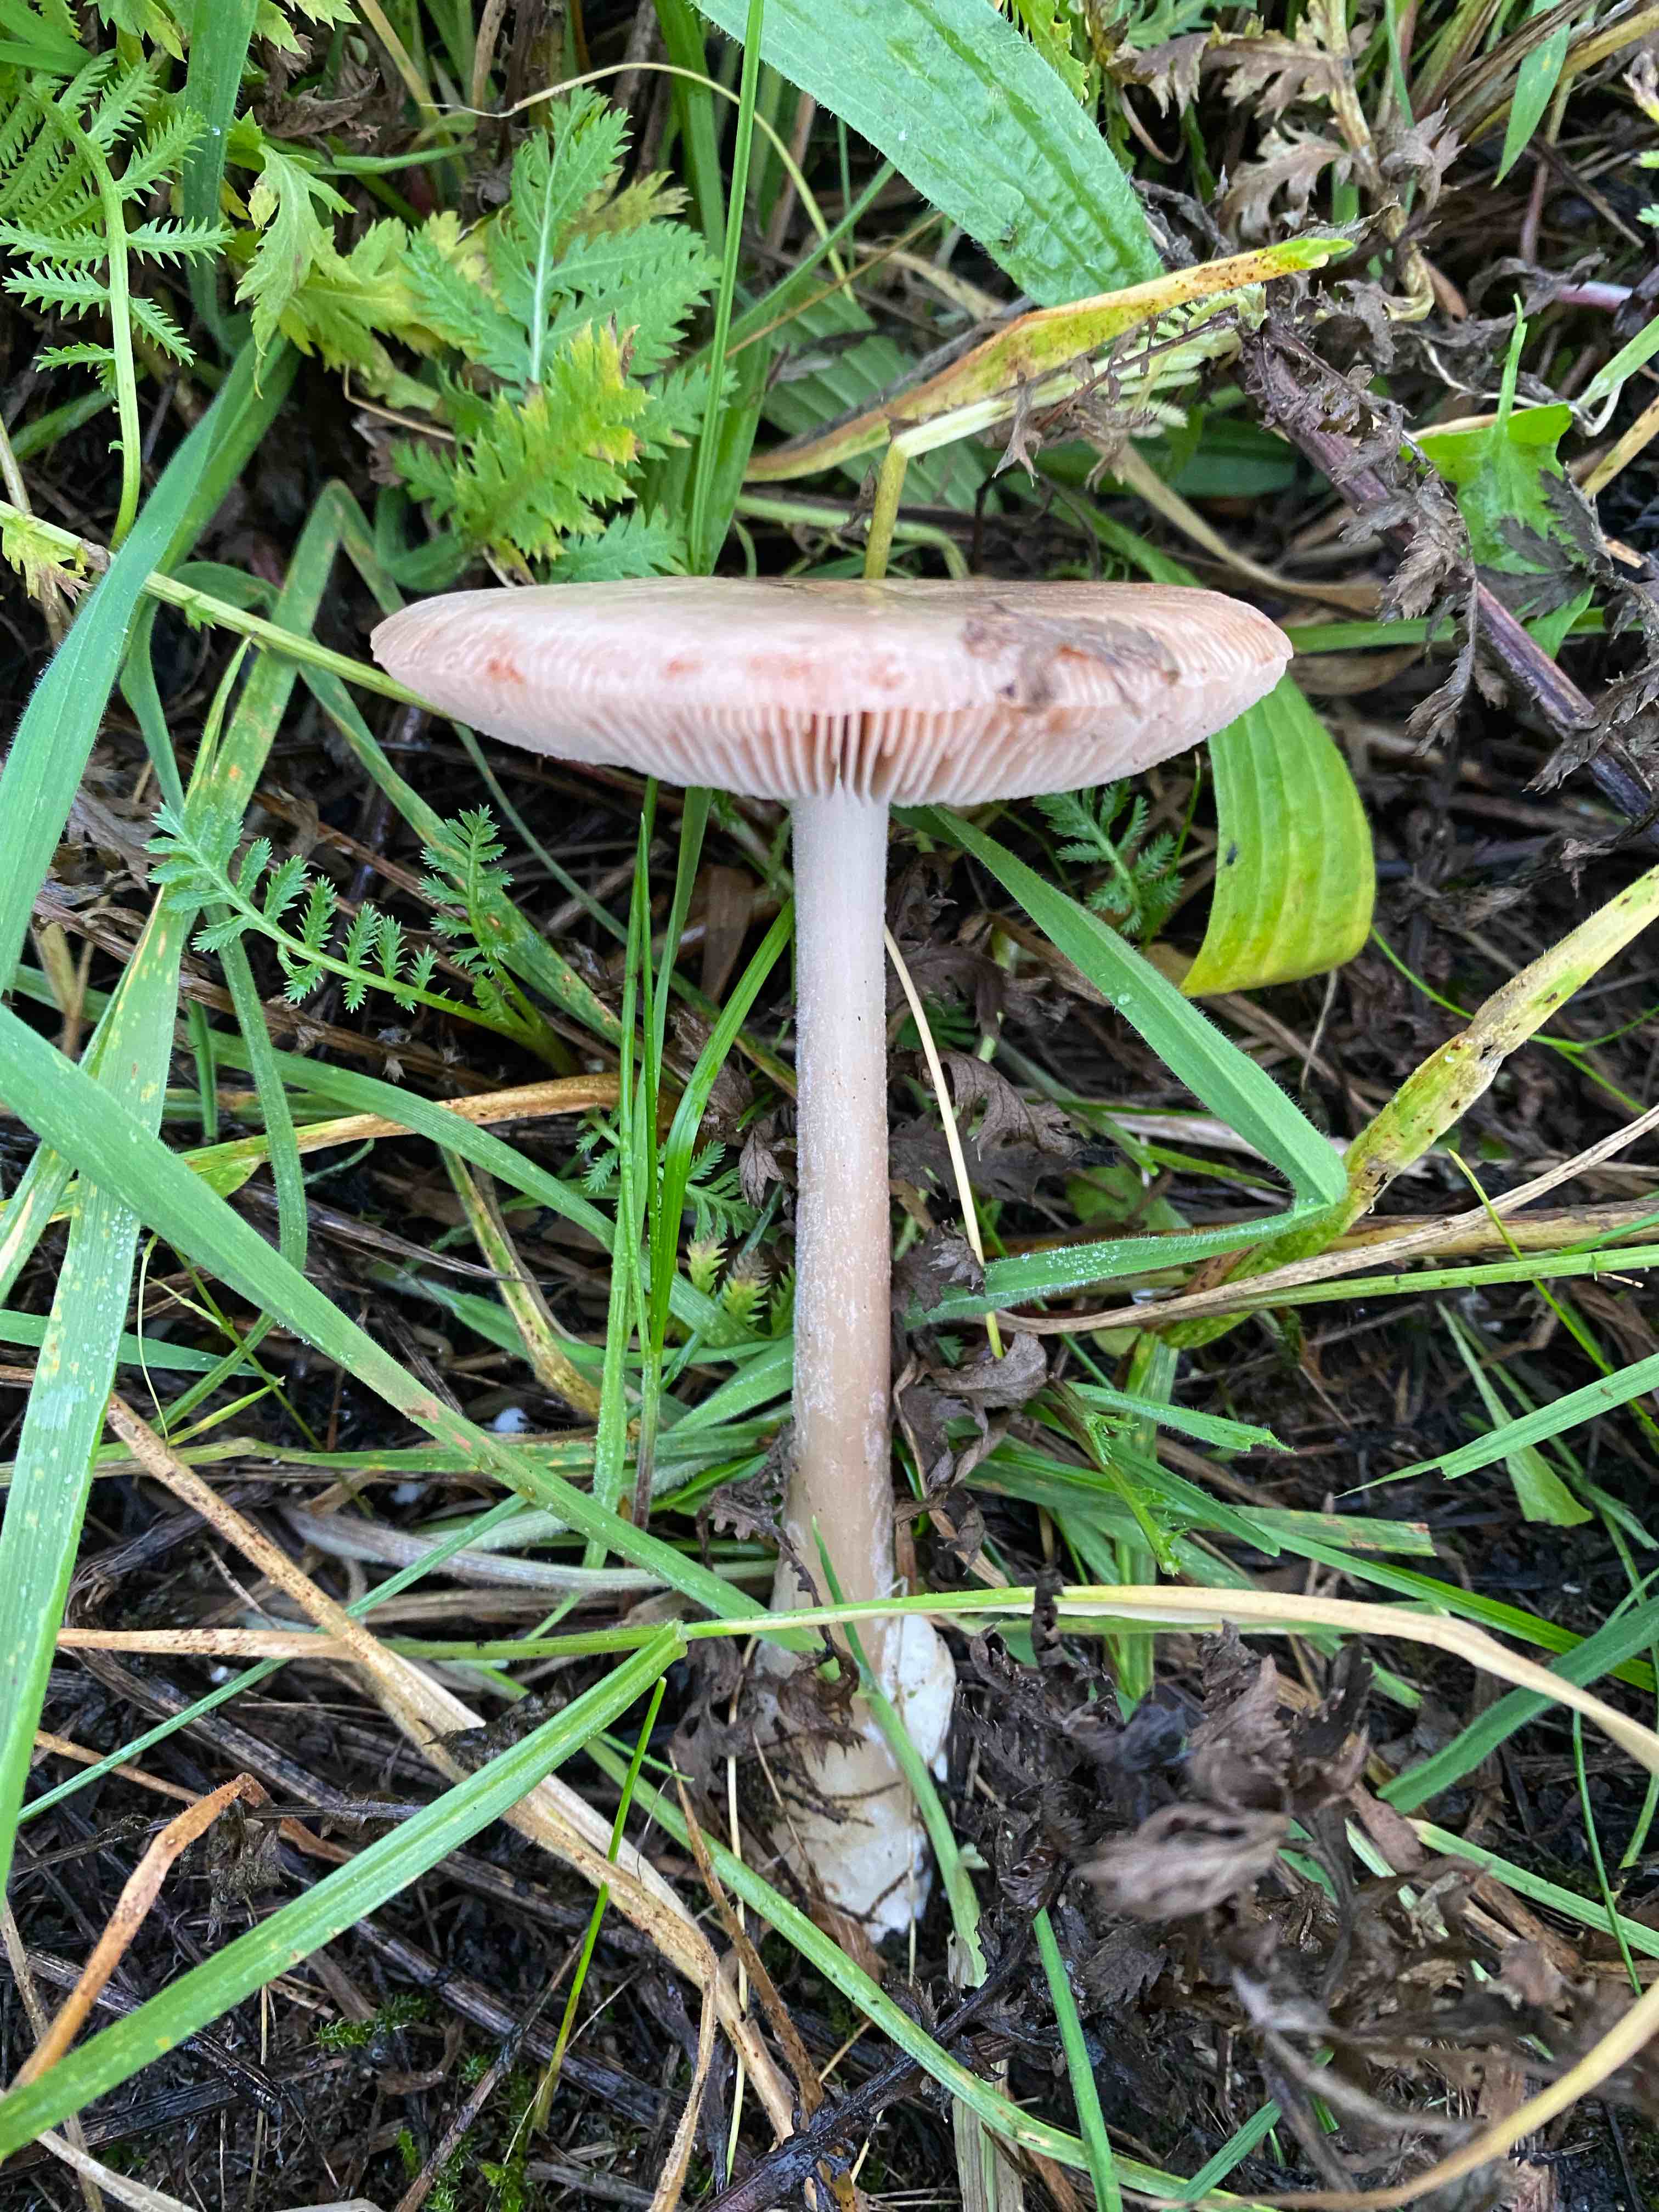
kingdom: Fungi
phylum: Basidiomycota
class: Agaricomycetes
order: Agaricales
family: Pluteaceae
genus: Volvopluteus
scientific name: Volvopluteus gloiocephalus
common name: høj posesvamp
